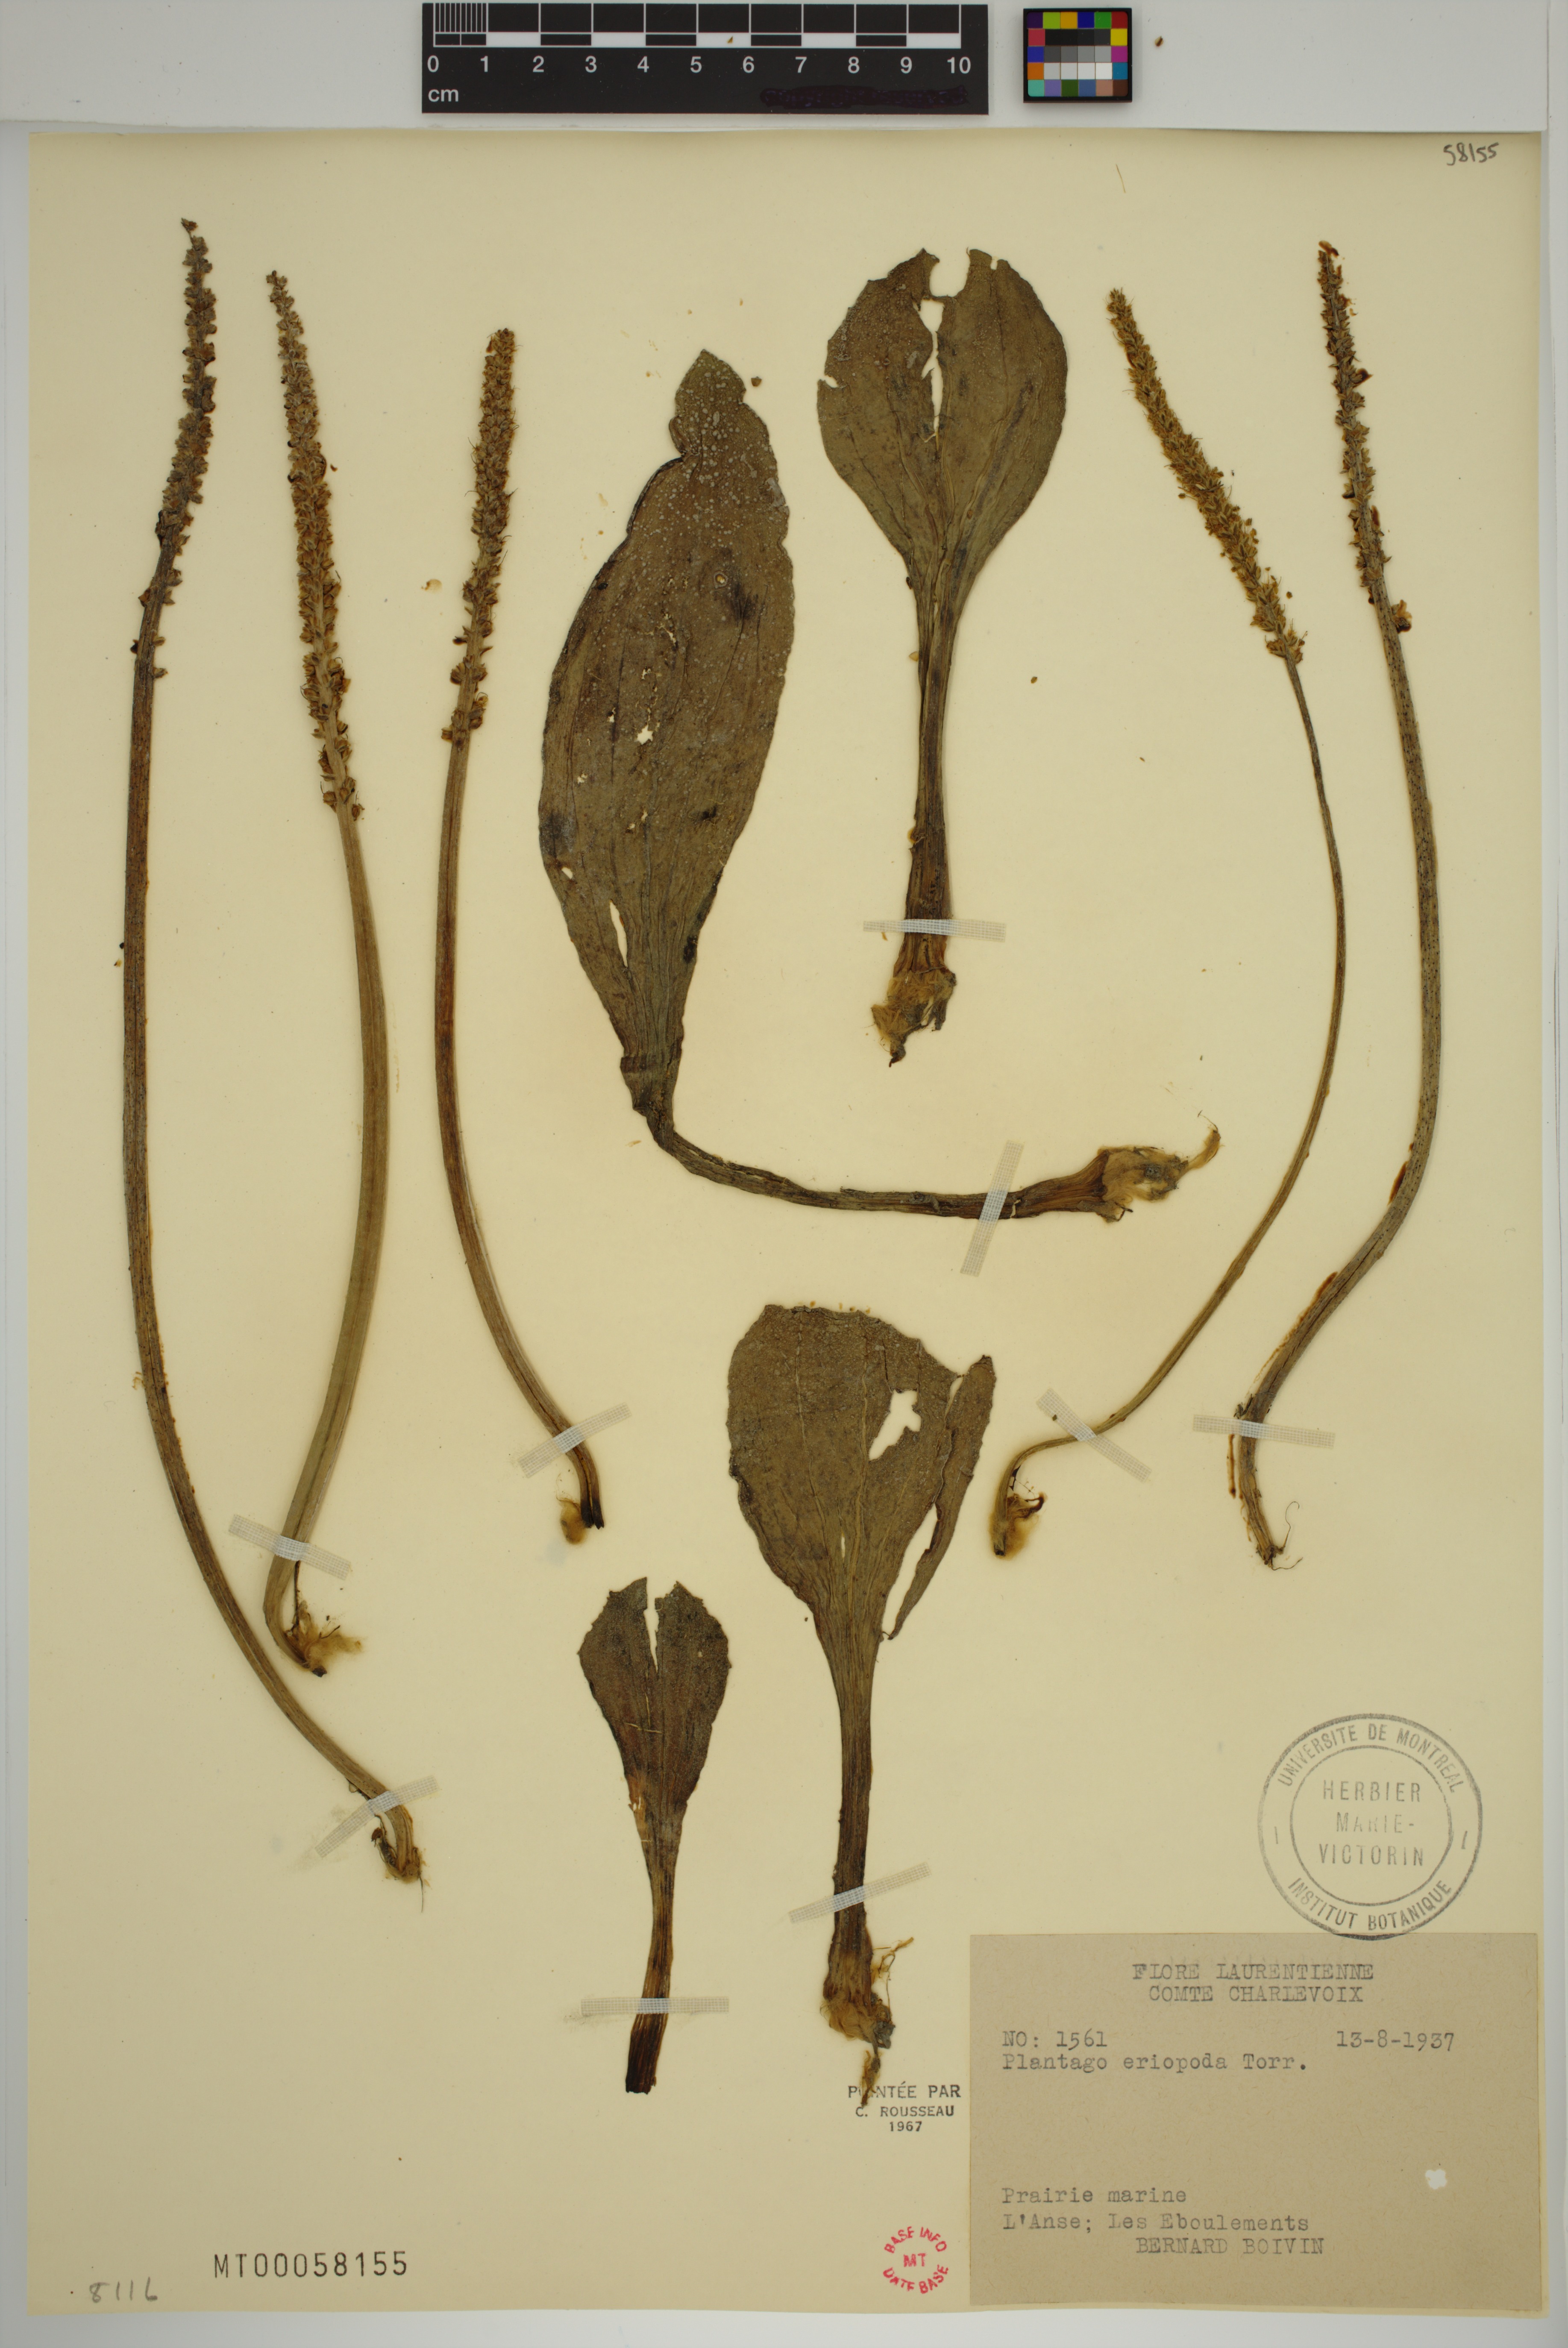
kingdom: Plantae
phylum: Tracheophyta
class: Magnoliopsida
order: Lamiales
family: Plantaginaceae
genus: Plantago
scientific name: Plantago eriopoda
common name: Alkali plantain
